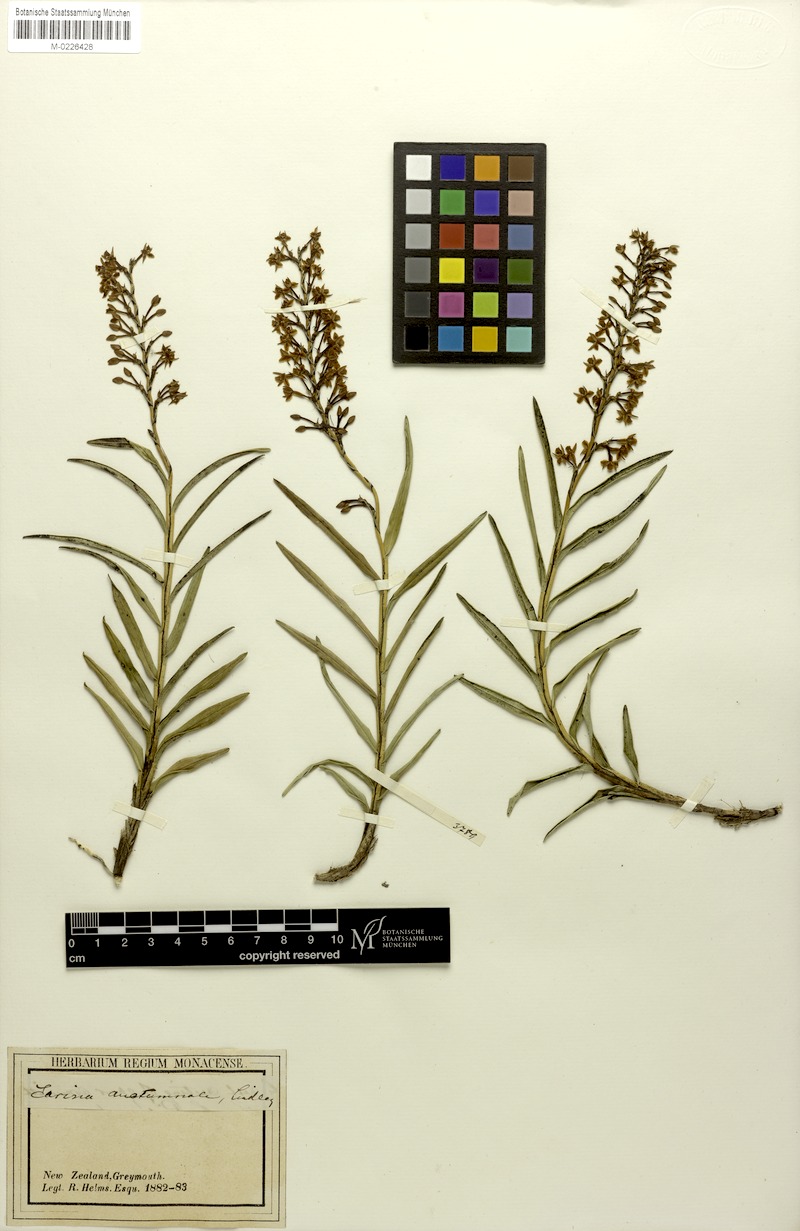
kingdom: Plantae
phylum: Tracheophyta
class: Liliopsida
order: Asparagales
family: Orchidaceae
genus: Earina
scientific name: Earina autumnalis
